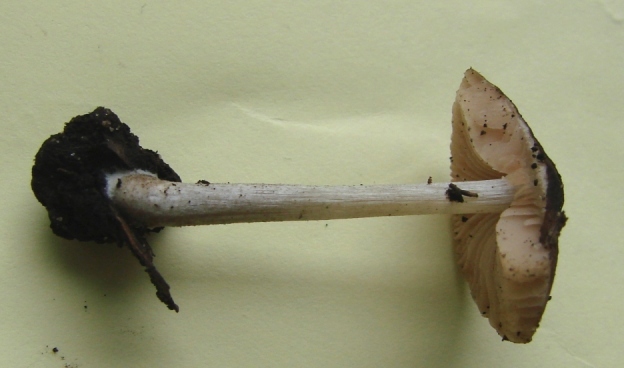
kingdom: Fungi
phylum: Basidiomycota
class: Agaricomycetes
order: Agaricales
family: Pluteaceae
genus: Pluteus
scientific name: Pluteus
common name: pudret skærmhat
